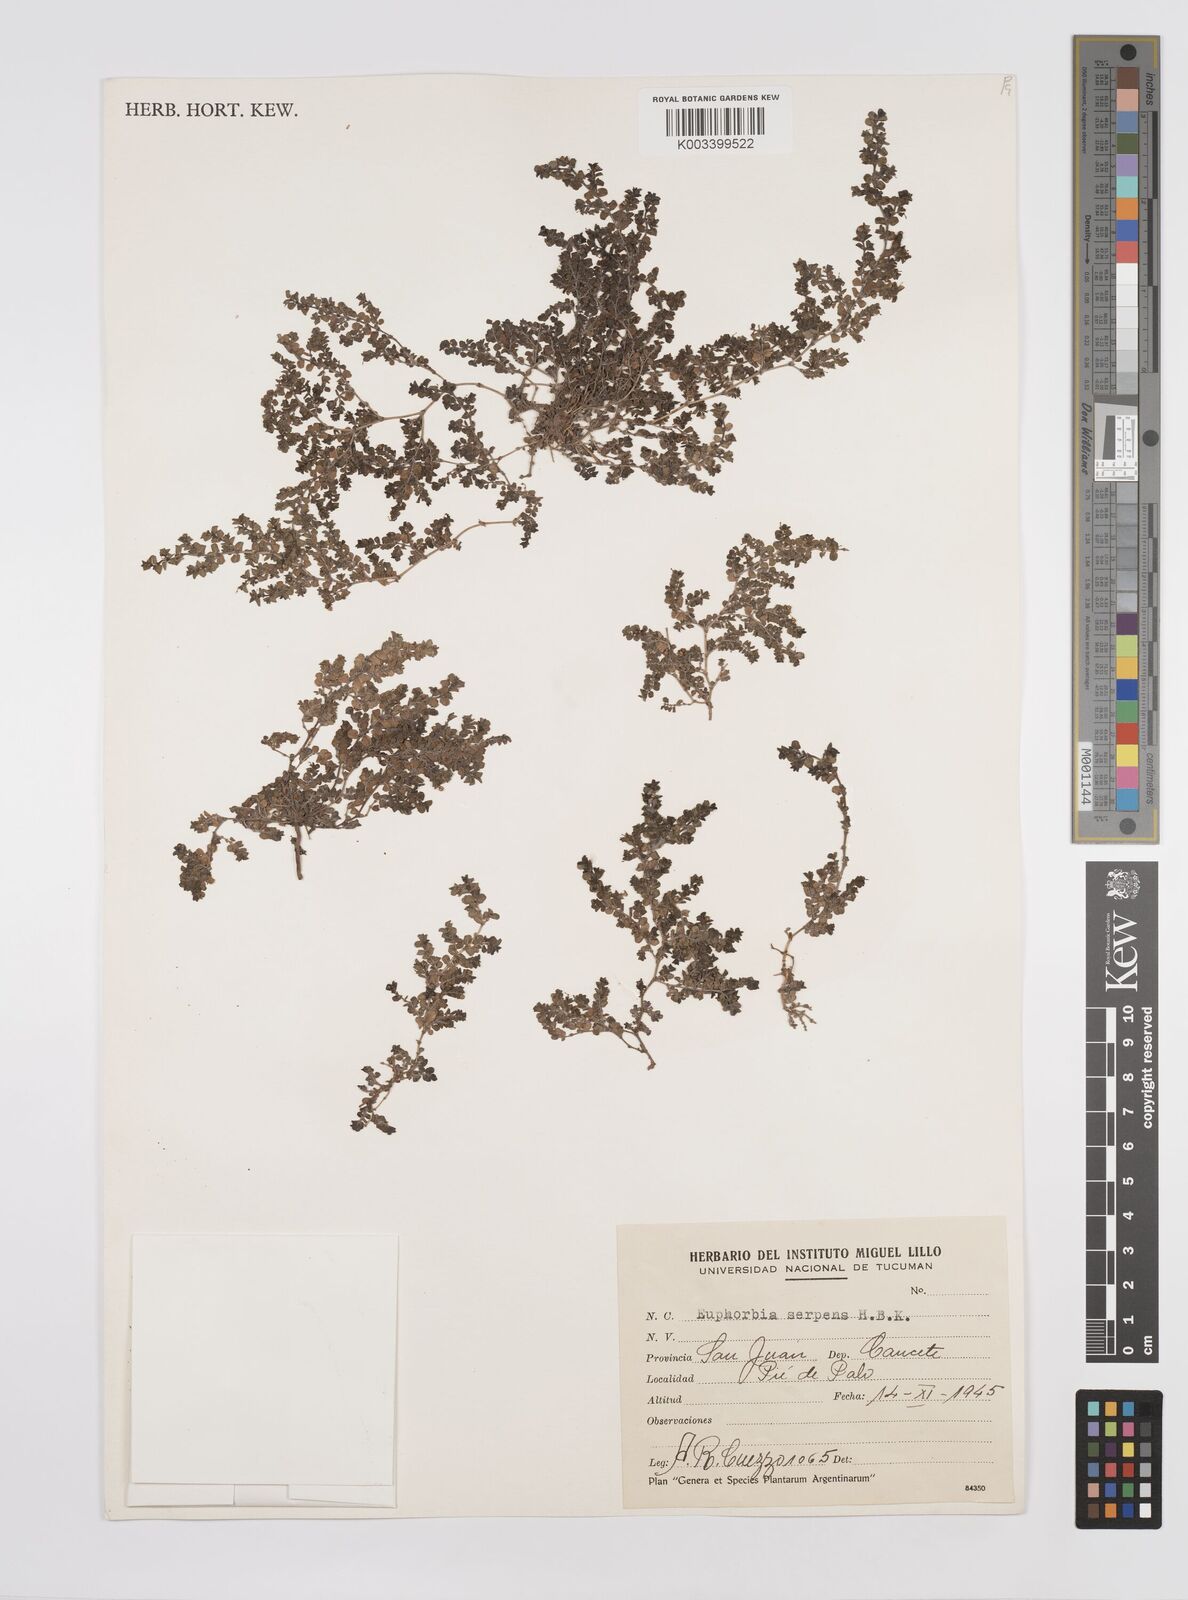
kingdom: Plantae
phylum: Tracheophyta
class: Magnoliopsida
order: Malpighiales
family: Euphorbiaceae
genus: Euphorbia
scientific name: Euphorbia
